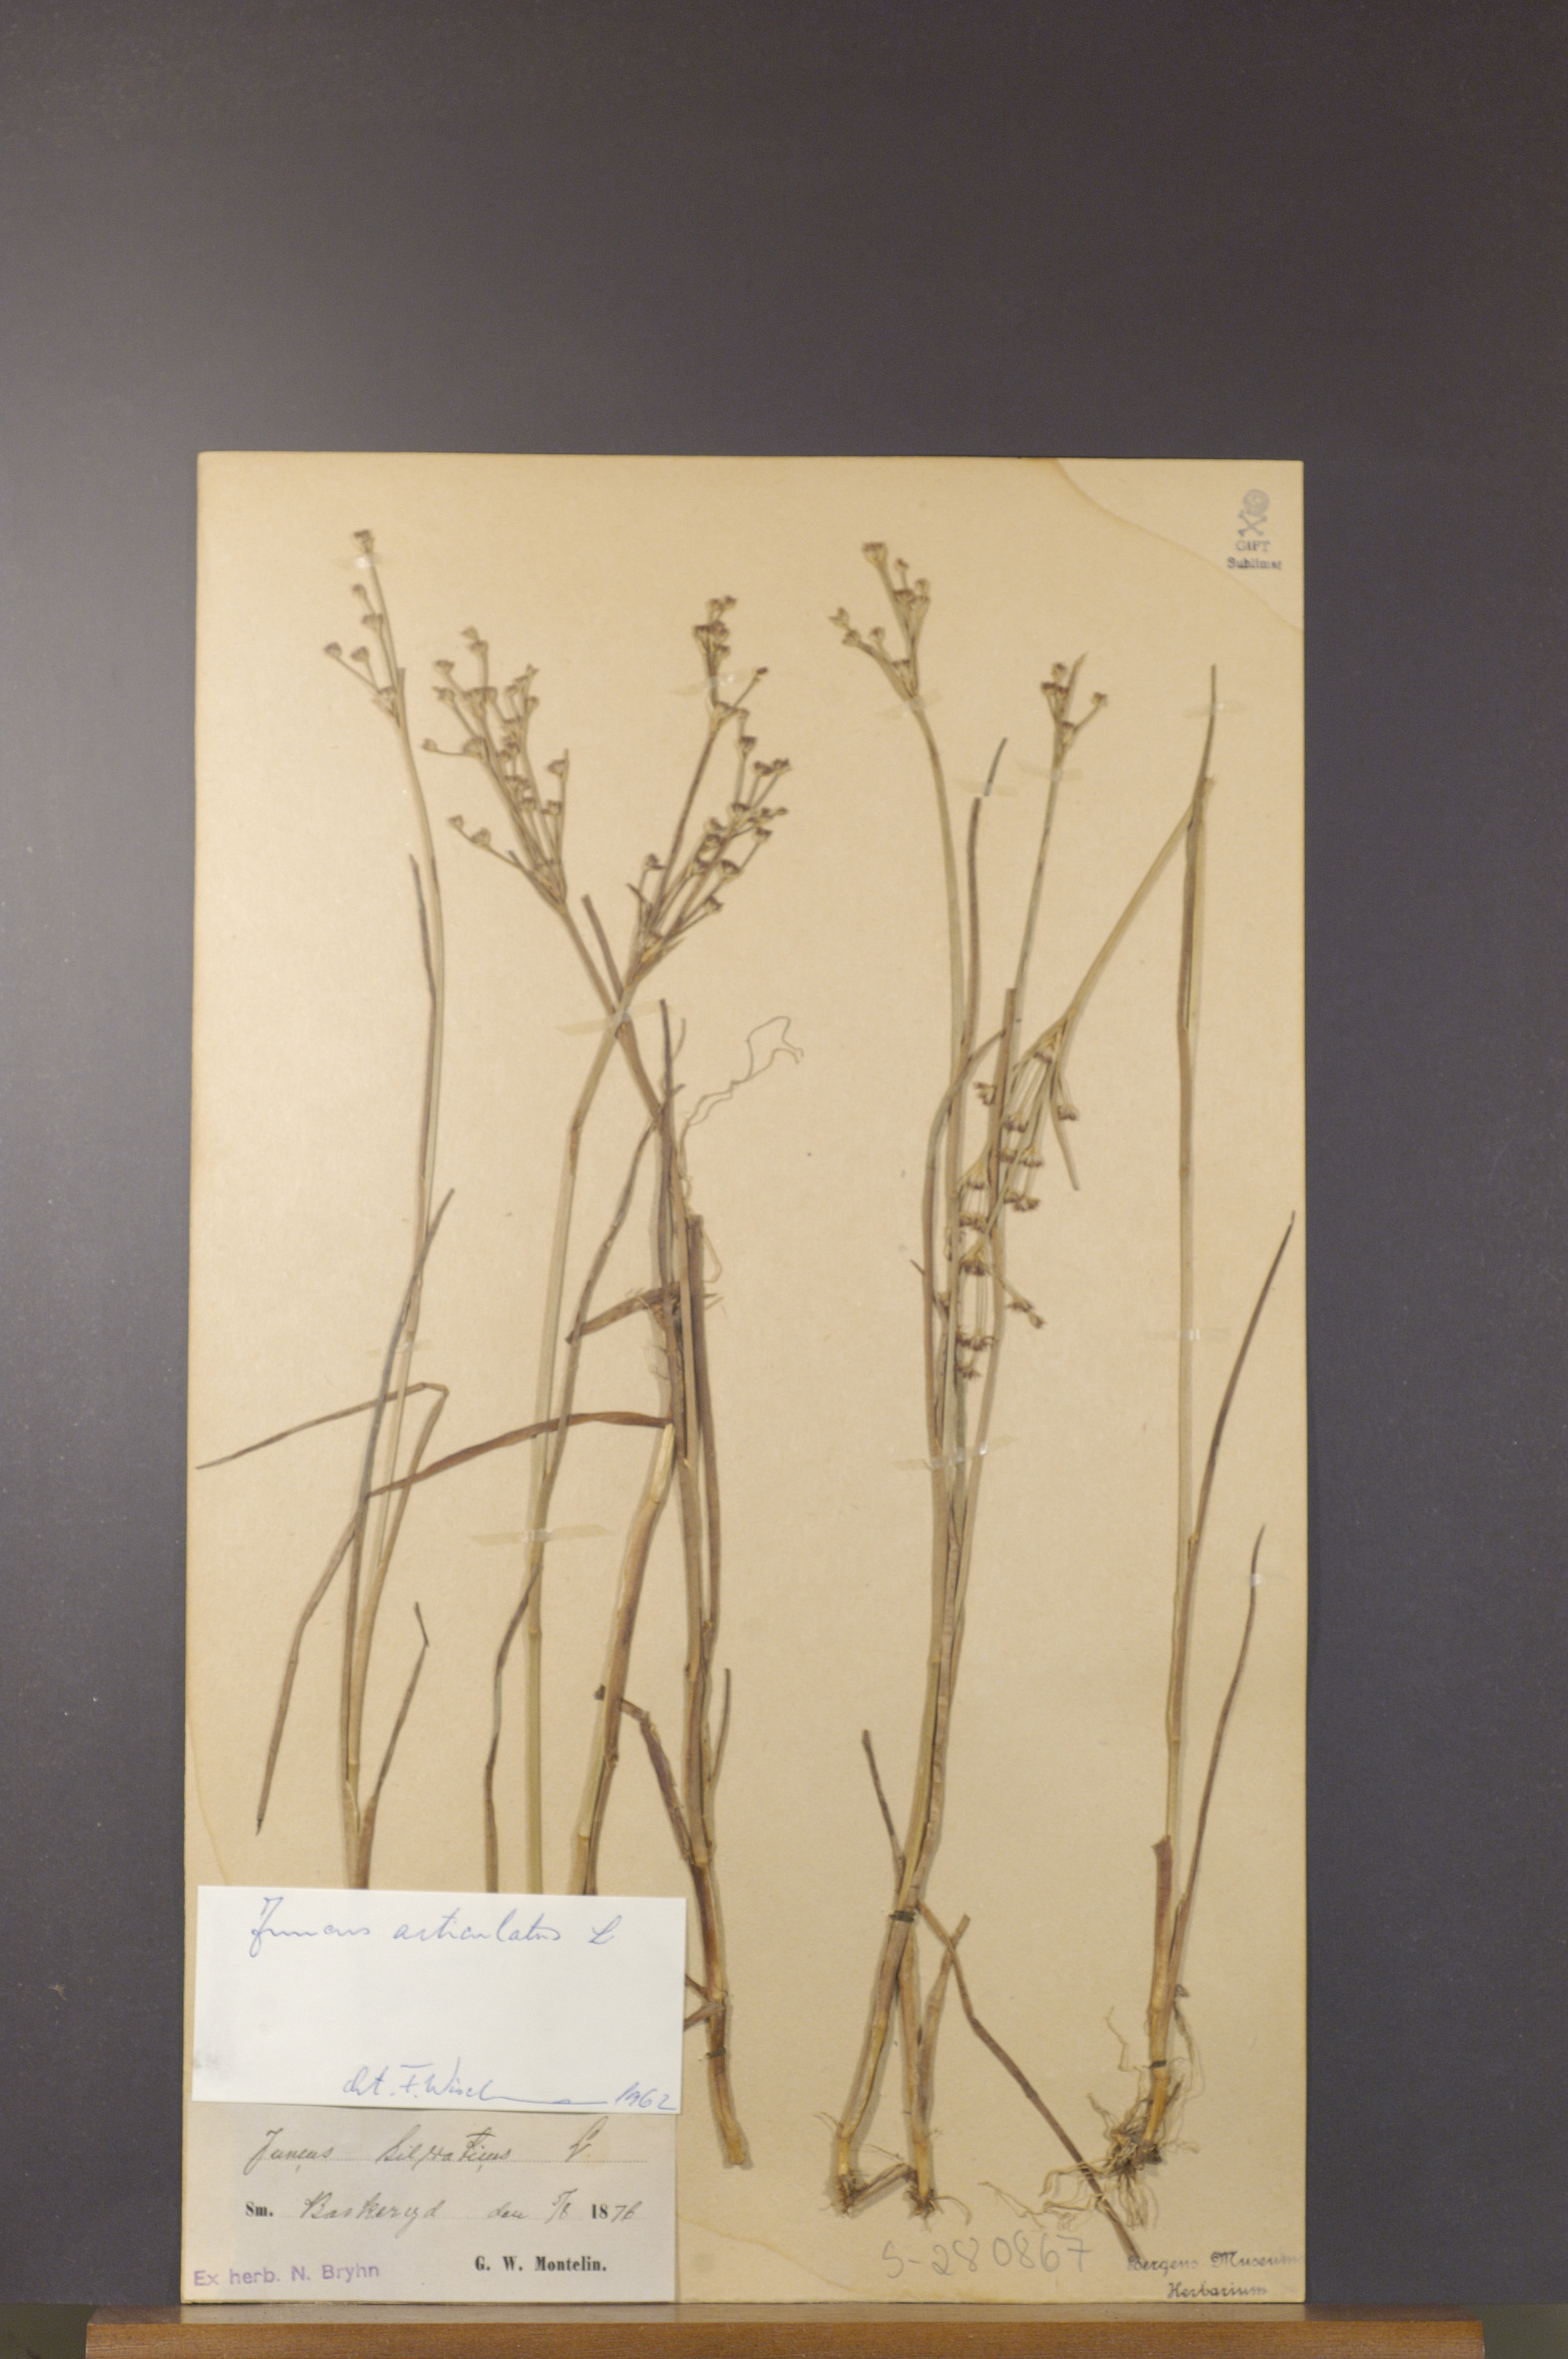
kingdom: Plantae
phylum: Tracheophyta
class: Liliopsida
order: Poales
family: Juncaceae
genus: Juncus
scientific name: Juncus articulatus
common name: Jointed rush
